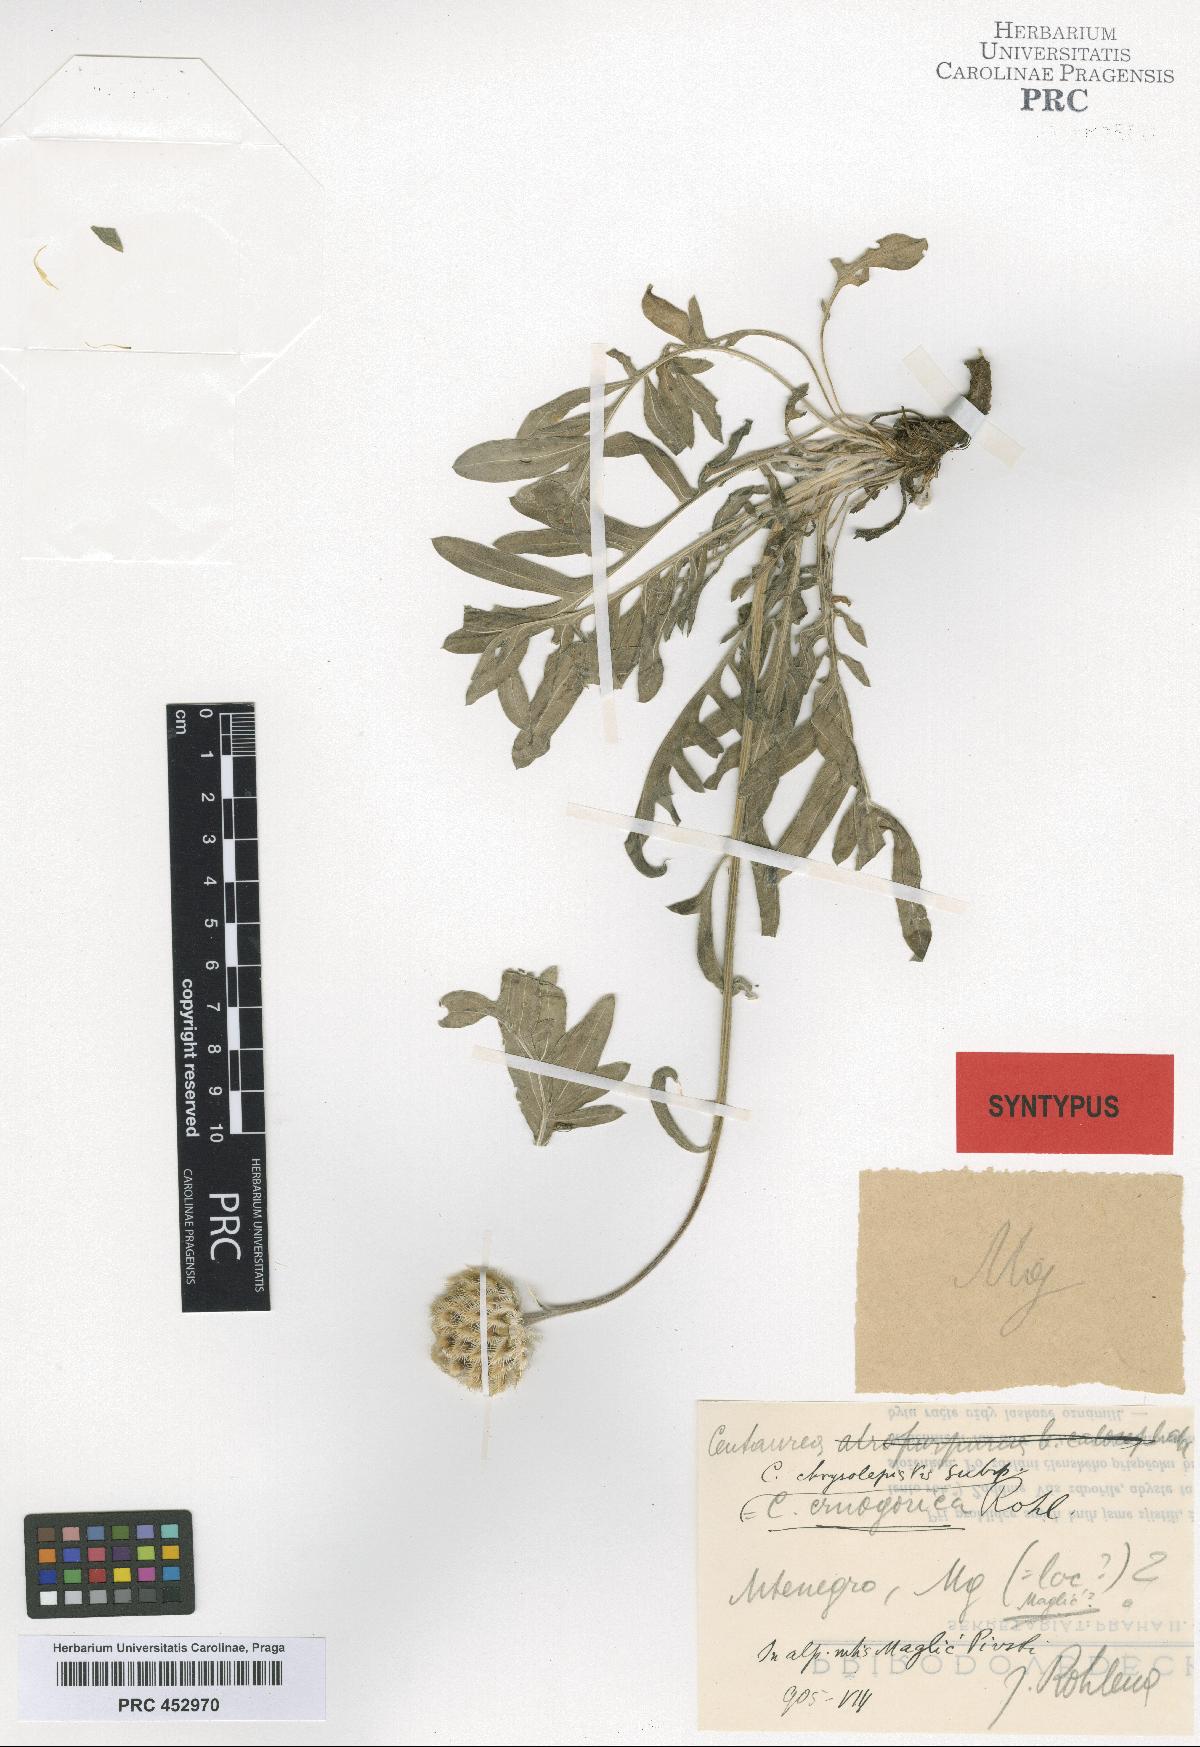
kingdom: Plantae
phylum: Tracheophyta
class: Magnoliopsida
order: Asterales
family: Asteraceae
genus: Centaurea
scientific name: Centaurea chrysolepis
